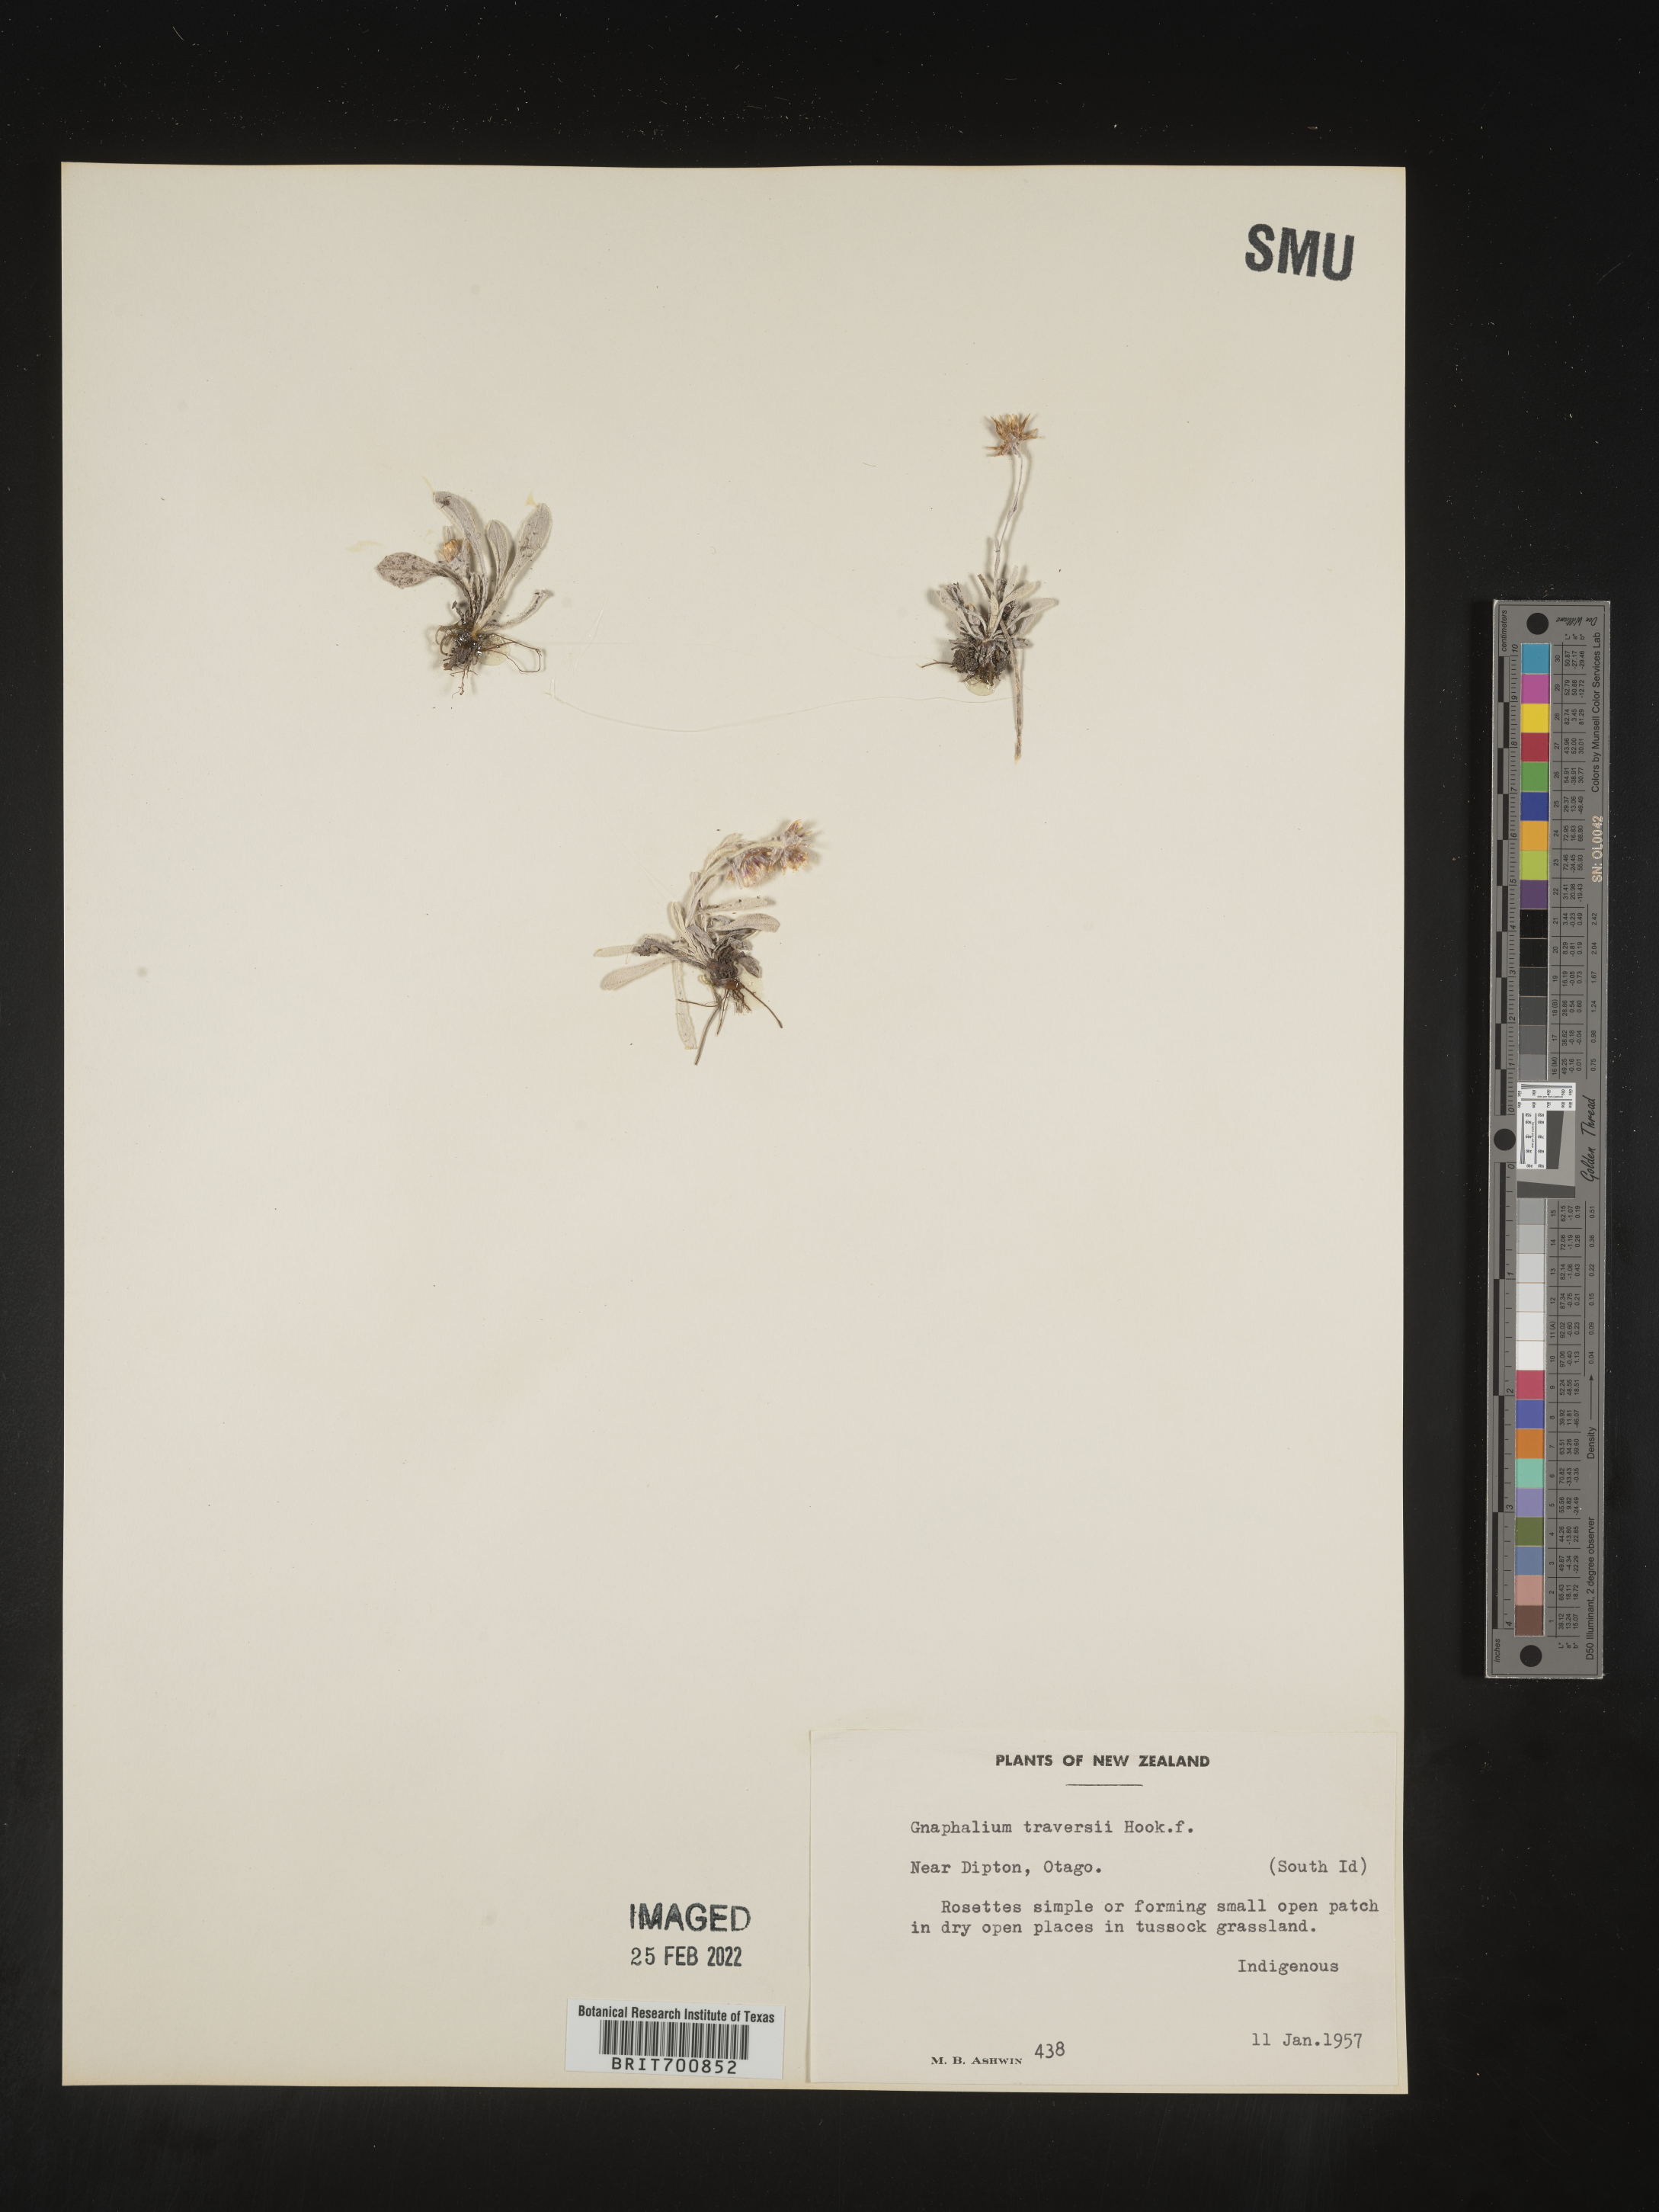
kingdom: Plantae
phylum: Tracheophyta
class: Magnoliopsida
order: Asterales
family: Asteraceae
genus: Euchiton
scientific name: Euchiton
